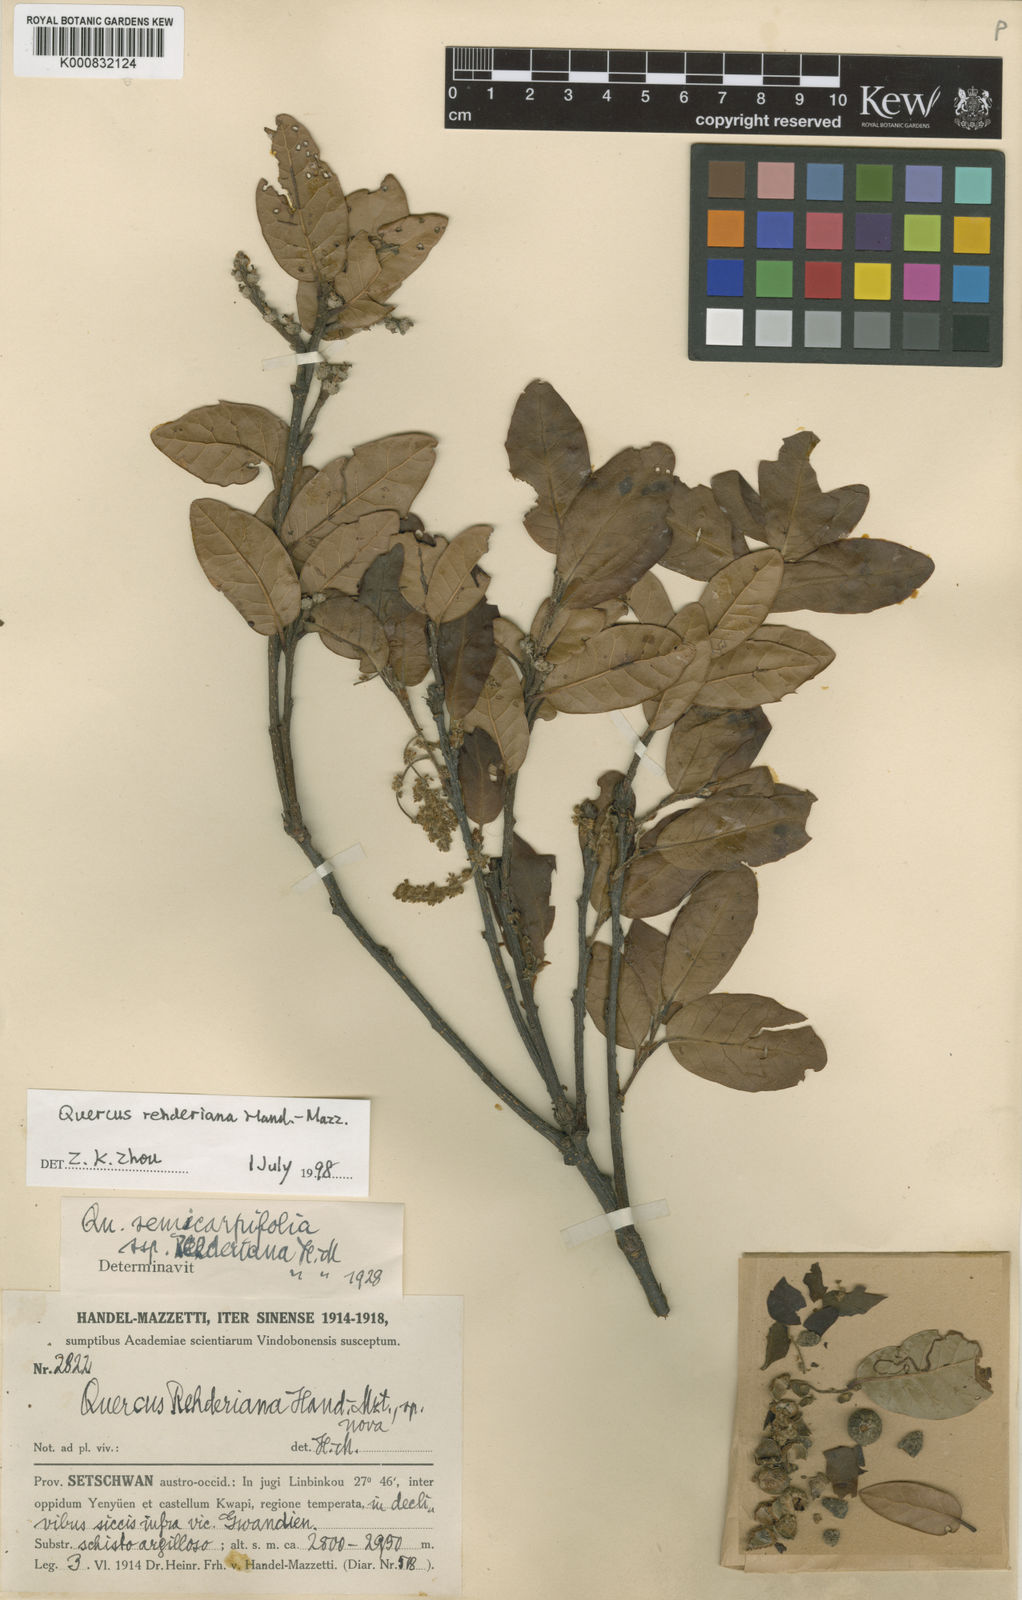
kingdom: Plantae
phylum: Tracheophyta
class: Magnoliopsida
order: Fagales
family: Fagaceae
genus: Quercus
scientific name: Quercus semecarpifolia
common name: Brown oak
